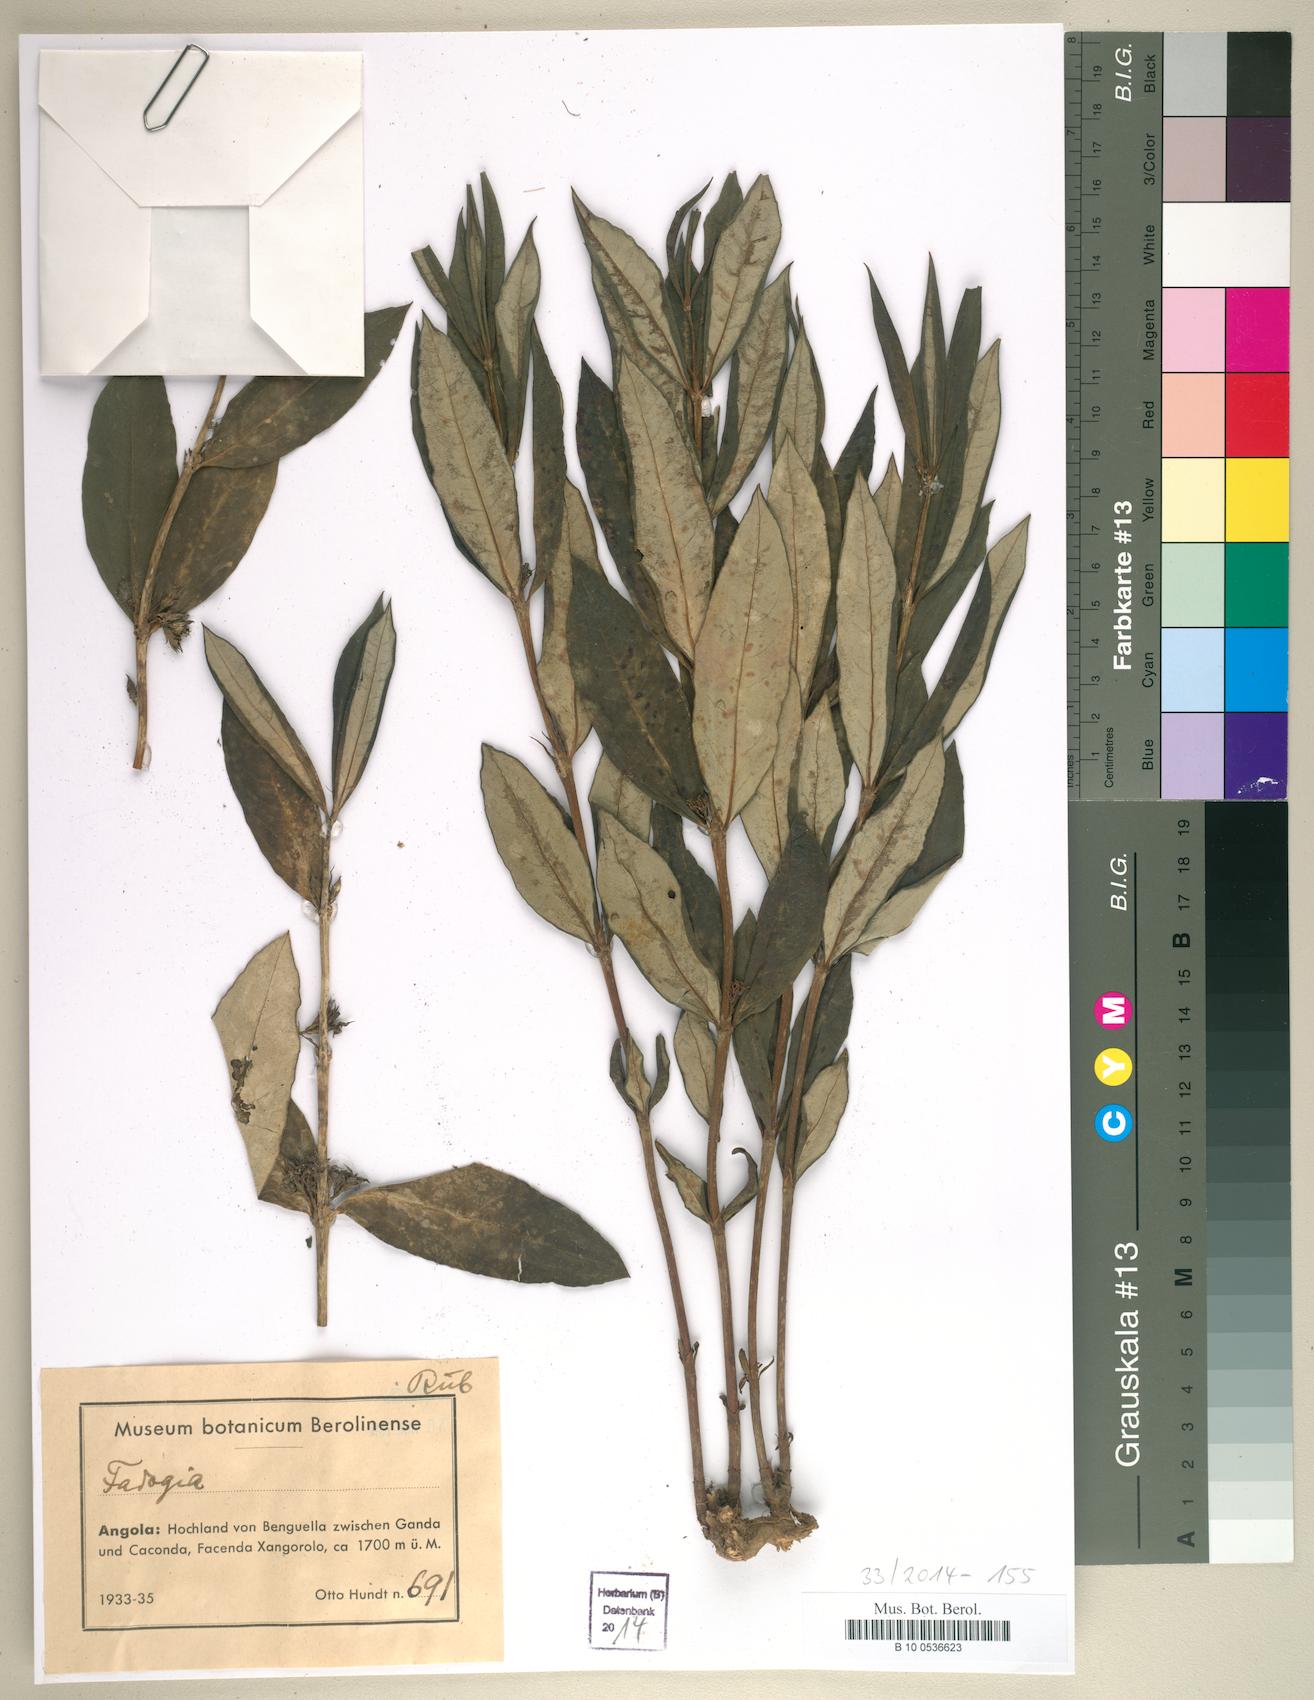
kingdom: Plantae
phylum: Tracheophyta
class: Magnoliopsida
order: Gentianales
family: Rubiaceae
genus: Fadogia
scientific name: Fadogia
